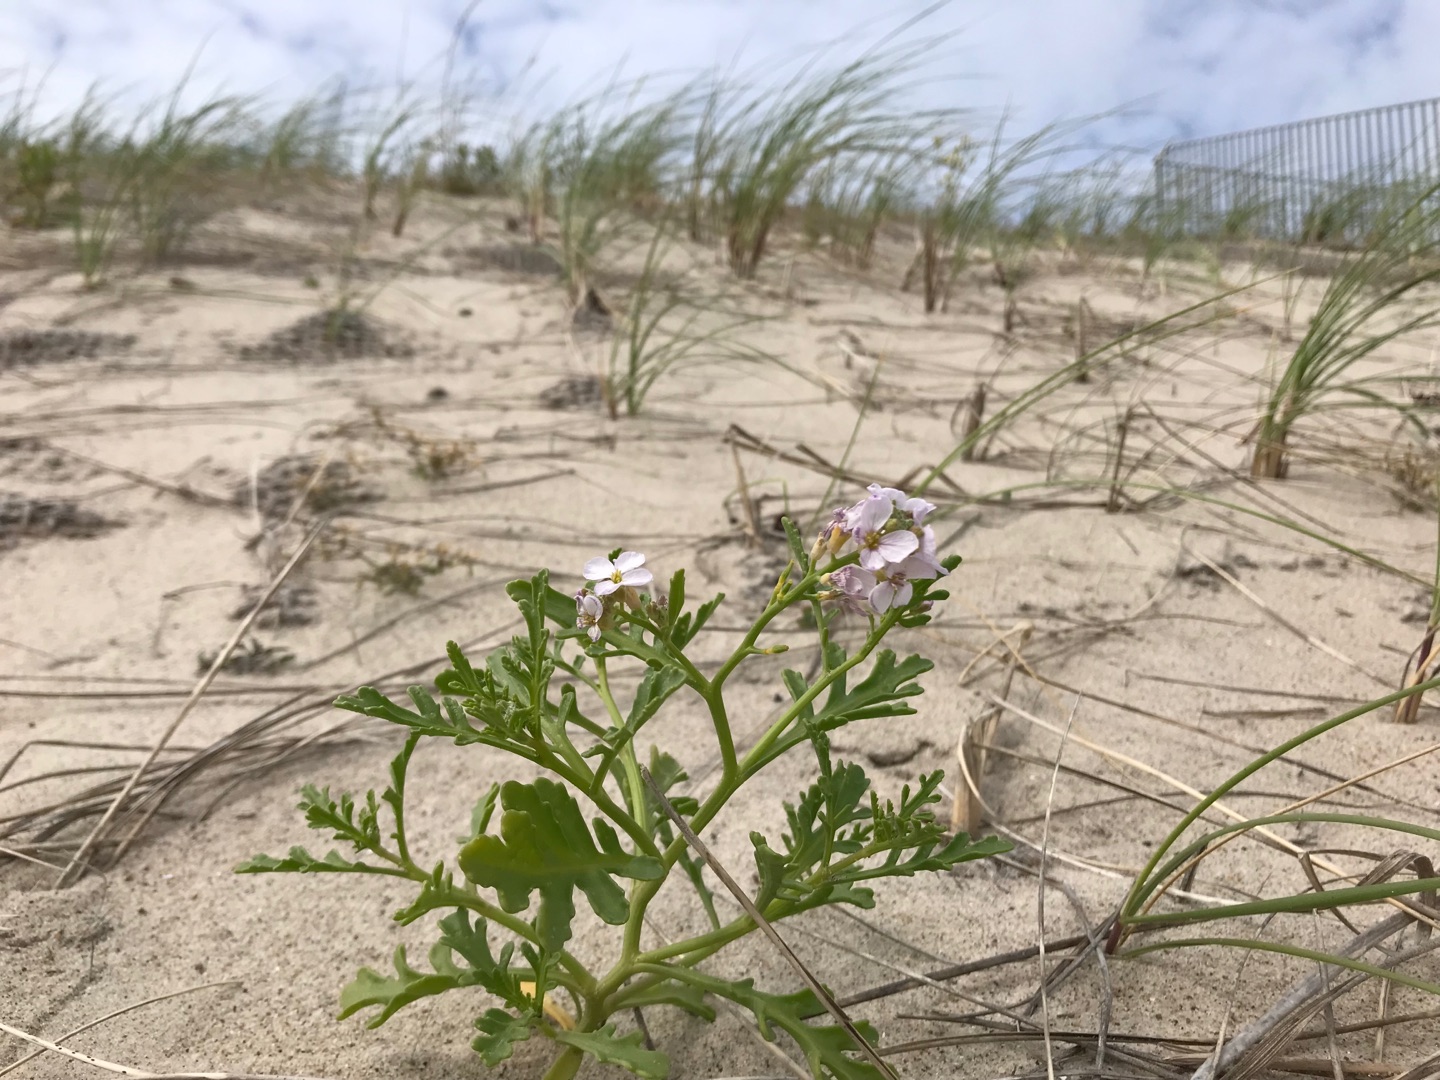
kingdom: Plantae
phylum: Tracheophyta
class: Magnoliopsida
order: Brassicales
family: Brassicaceae
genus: Cakile
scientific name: Cakile maritima
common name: Strandsennep
